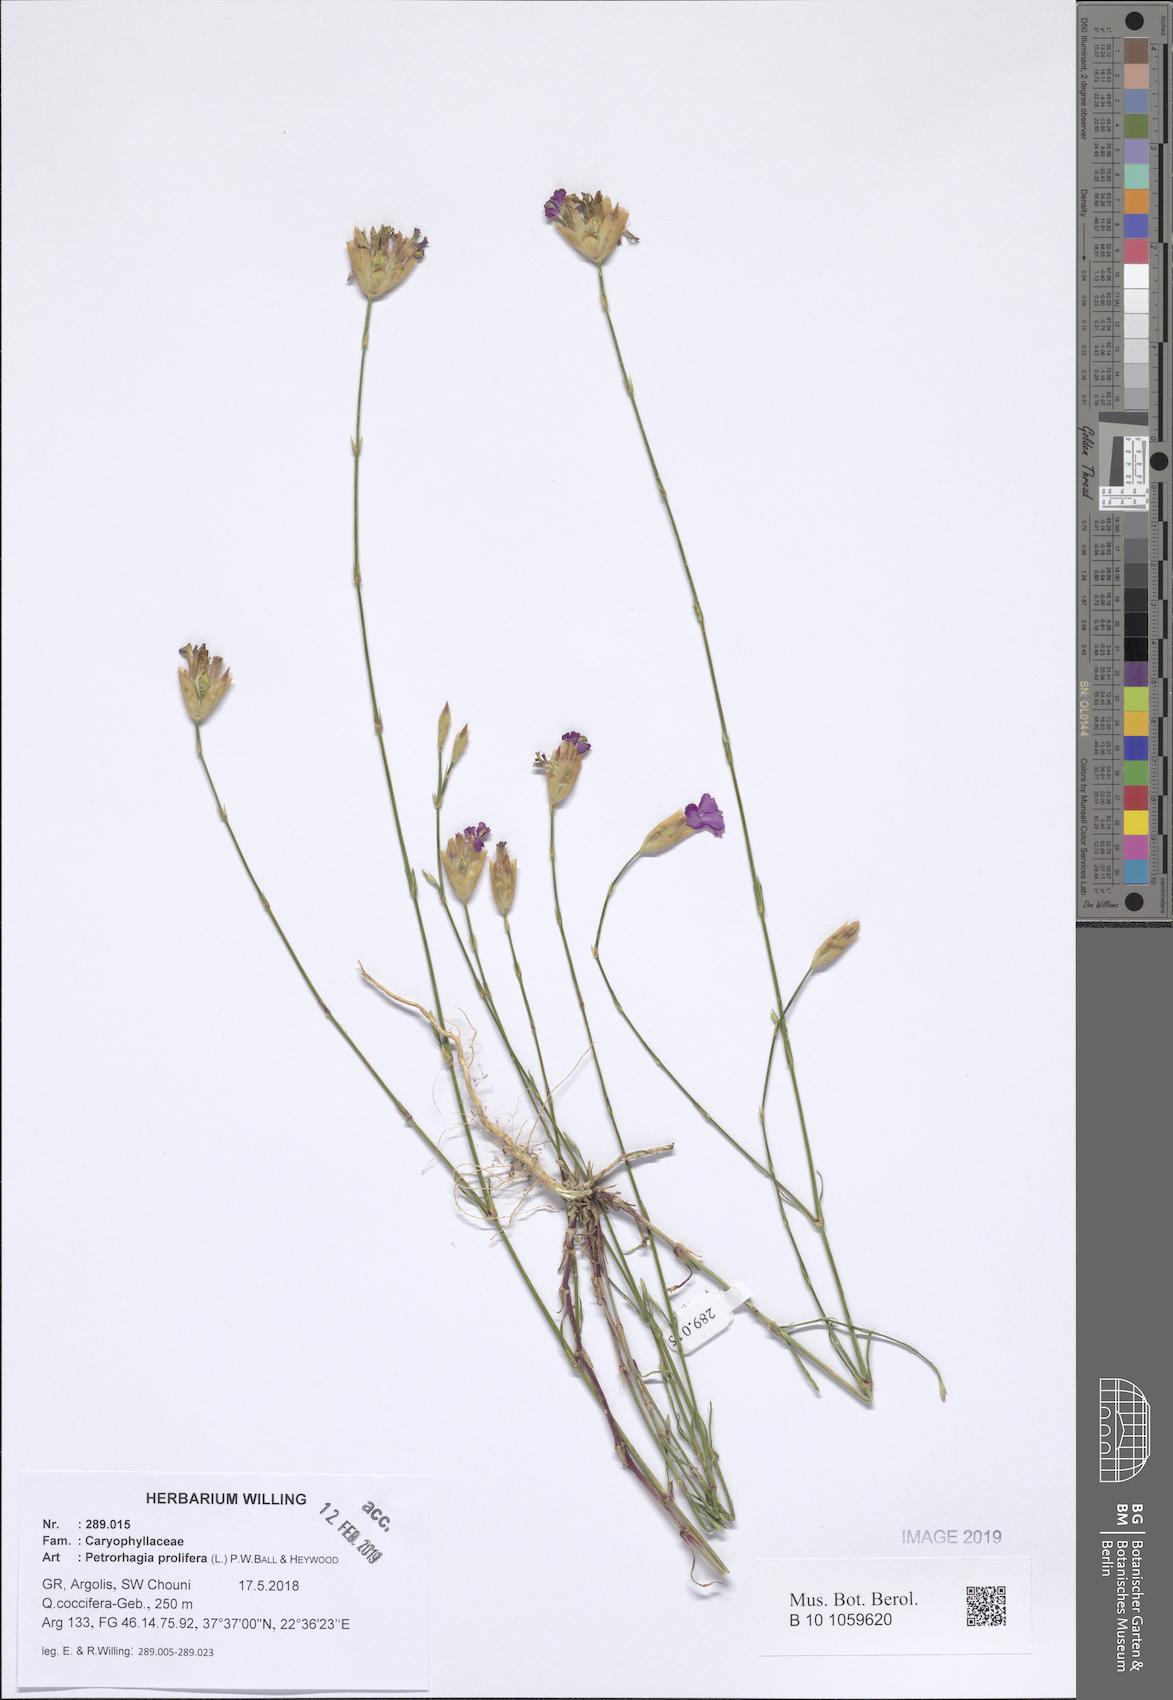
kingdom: Plantae
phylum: Tracheophyta
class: Magnoliopsida
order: Caryophyllales
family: Caryophyllaceae
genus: Petrorhagia
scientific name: Petrorhagia prolifera
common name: Proliferous pink
